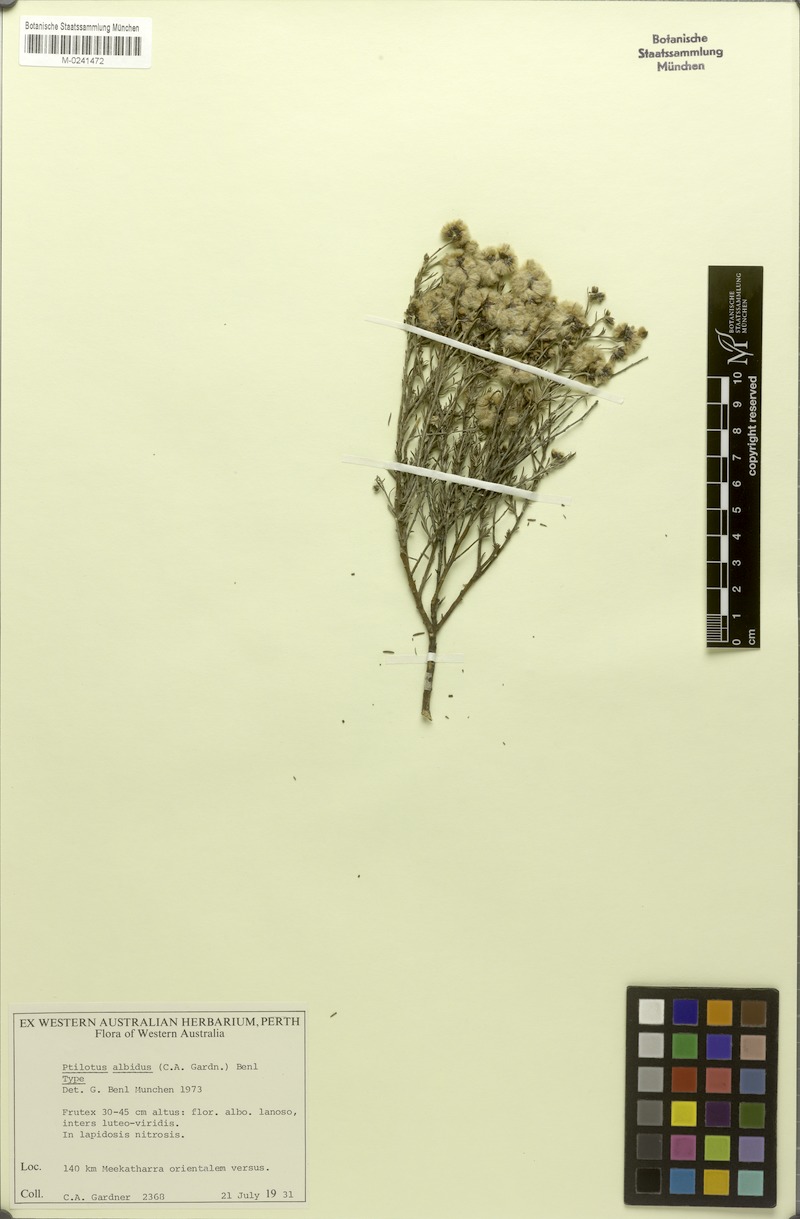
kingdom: Plantae
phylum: Tracheophyta
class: Magnoliopsida
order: Caryophyllales
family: Amaranthaceae
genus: Ptilotus
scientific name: Ptilotus albidus
